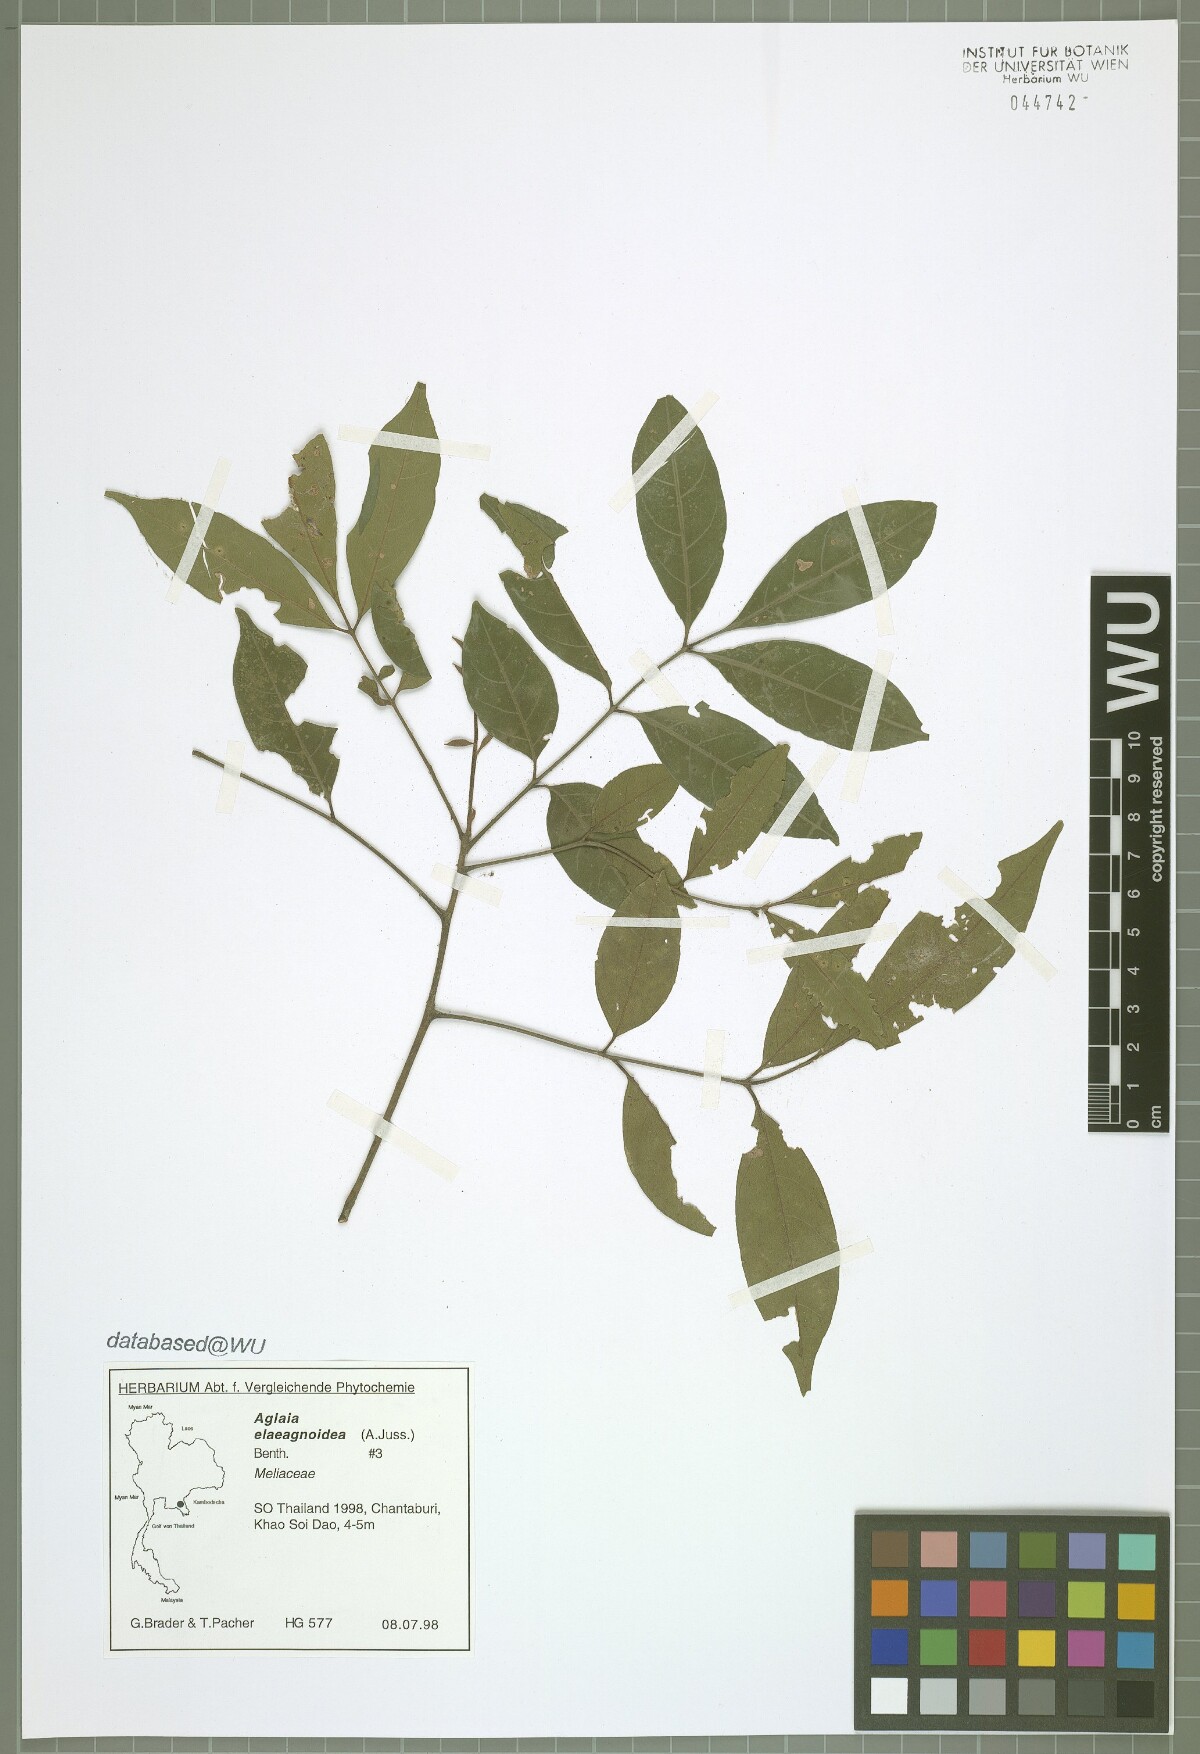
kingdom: Plantae
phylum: Tracheophyta
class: Magnoliopsida
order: Sapindales
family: Meliaceae
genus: Aglaia
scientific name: Aglaia elaeagnoidea
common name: Droopyleaf
